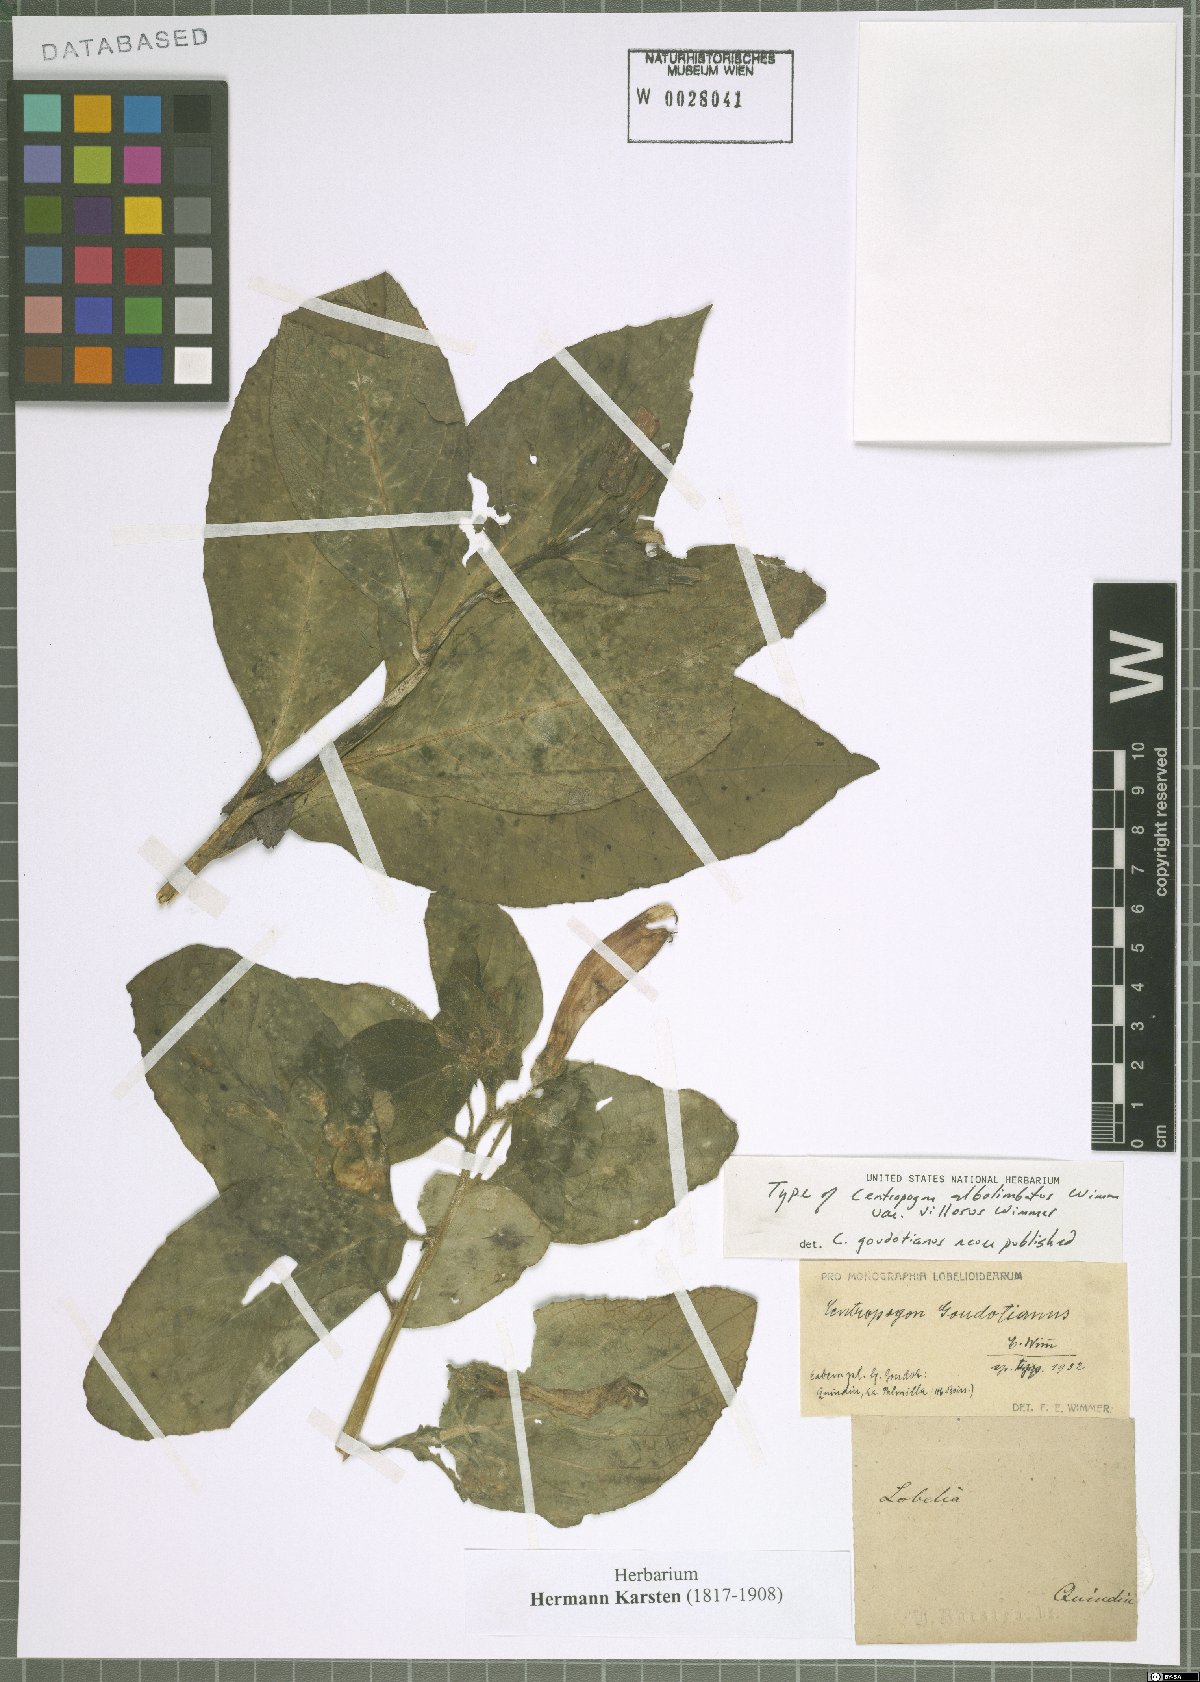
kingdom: Plantae
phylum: Tracheophyta
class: Magnoliopsida
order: Asterales
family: Campanulaceae
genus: Centropogon
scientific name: Centropogon albolimbatus
